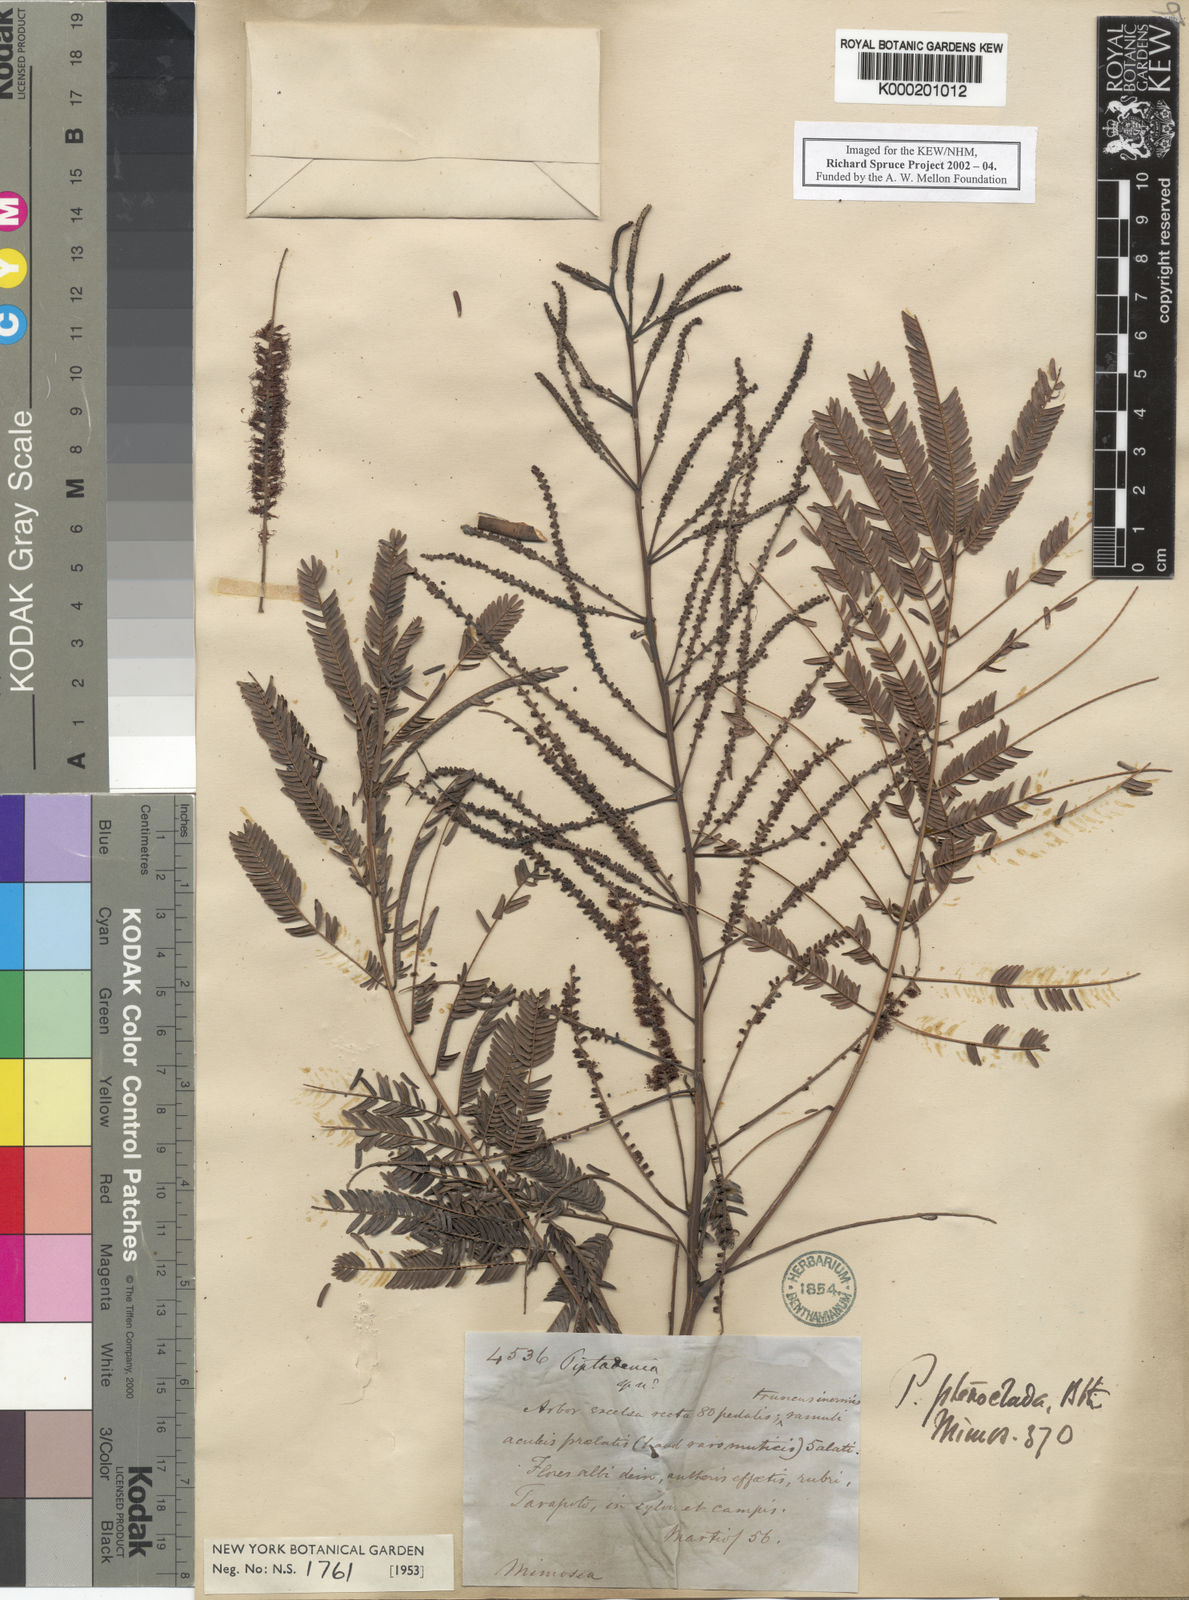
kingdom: Plantae
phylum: Tracheophyta
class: Magnoliopsida
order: Fabales
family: Fabaceae
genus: Piptadenia
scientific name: Piptadenia pteroclada
